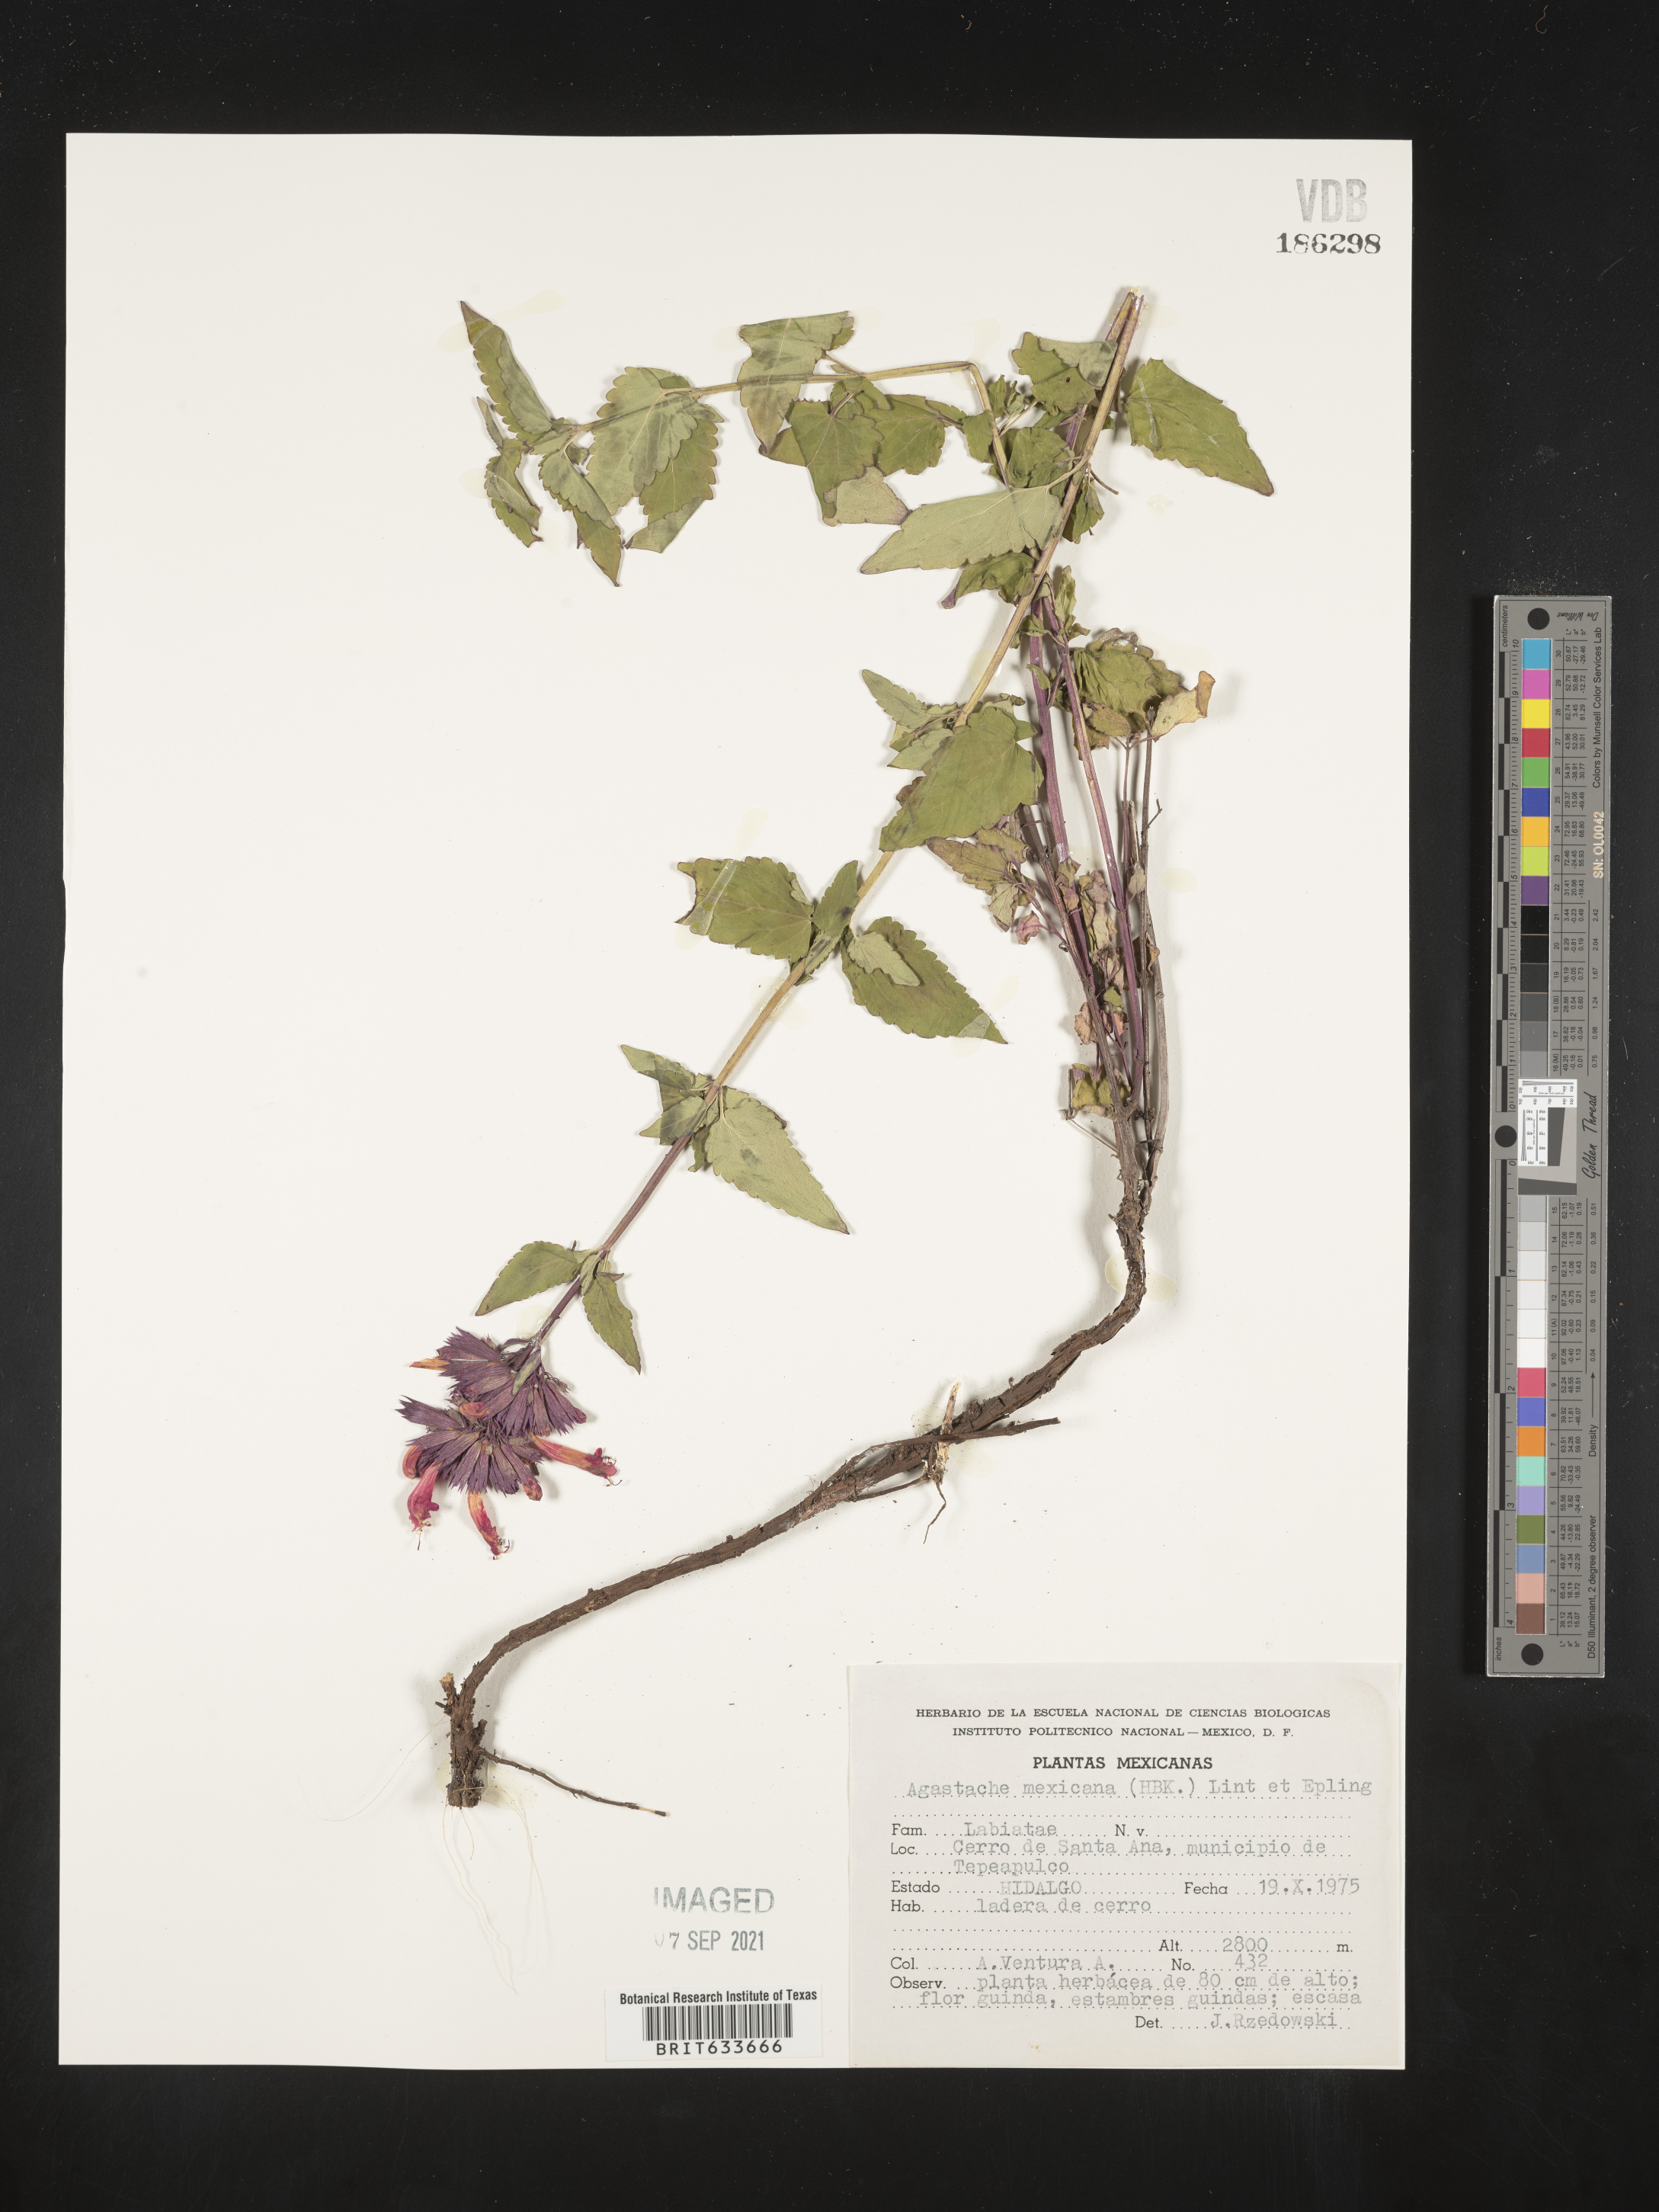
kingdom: Plantae
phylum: Tracheophyta
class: Magnoliopsida
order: Lamiales
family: Lamiaceae
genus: Agastache
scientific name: Agastache
